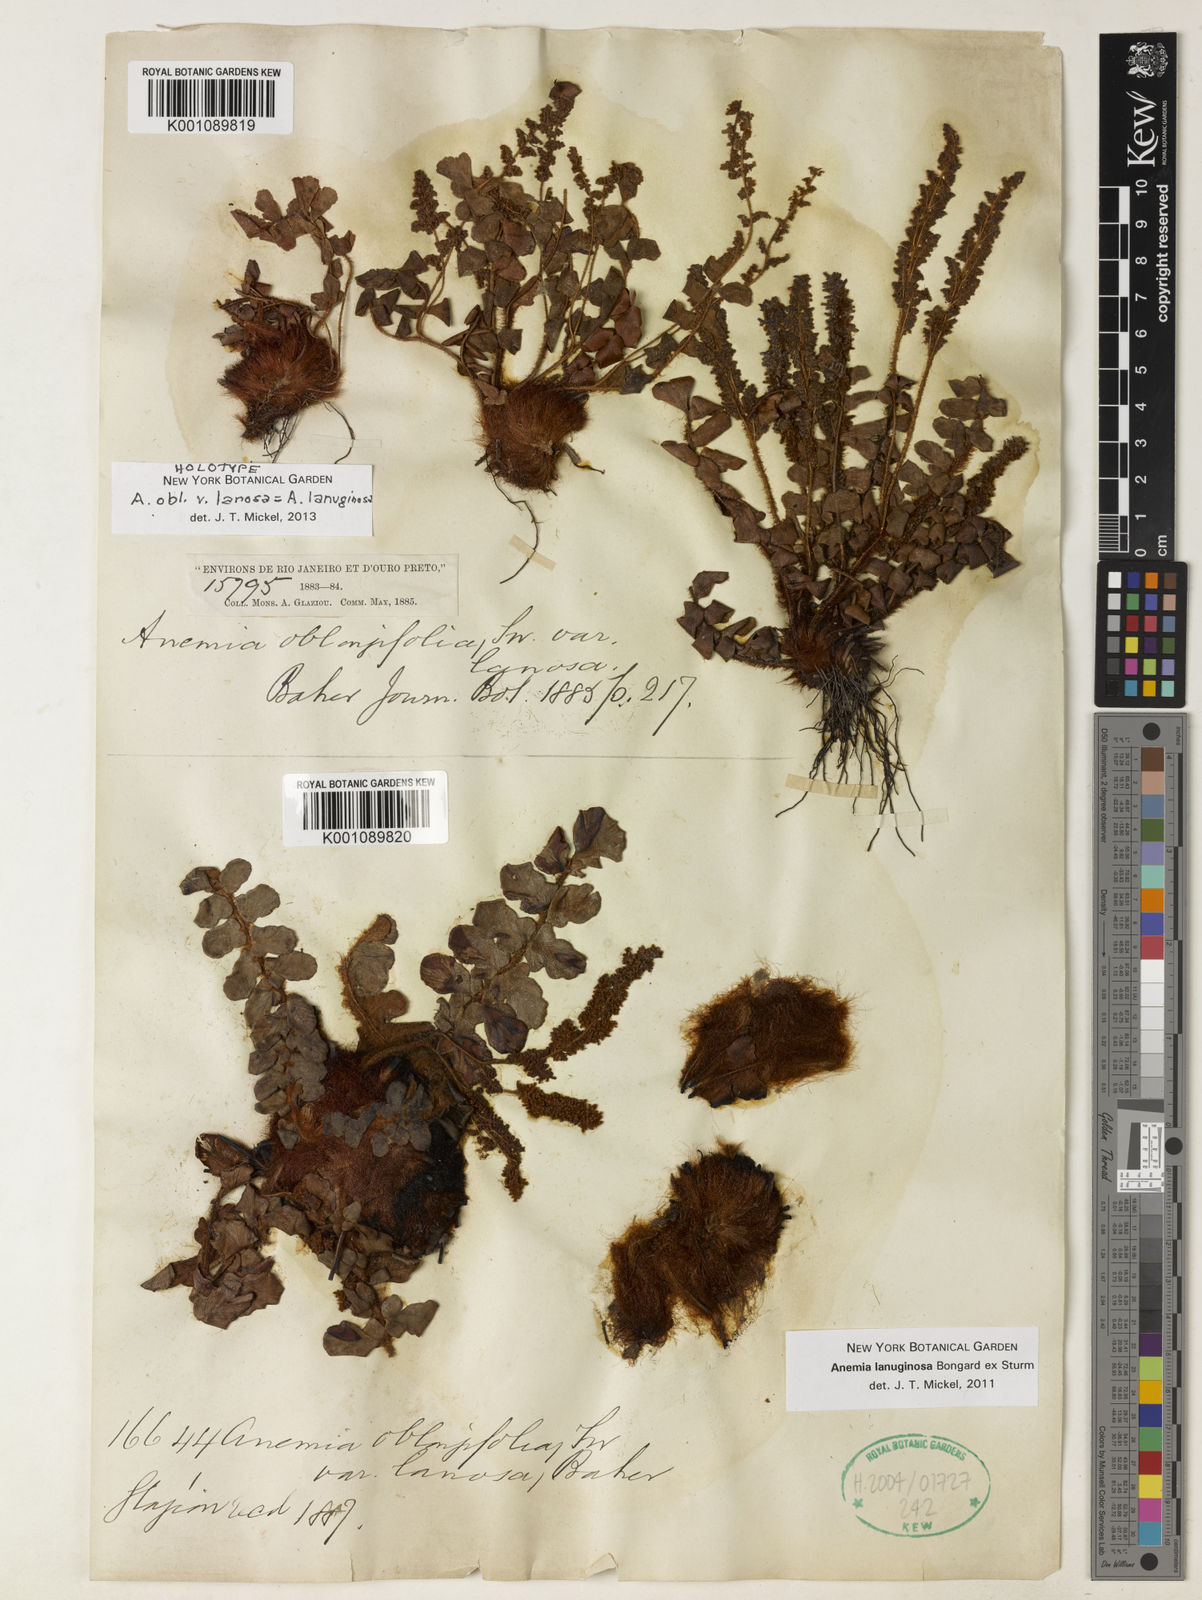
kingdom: Plantae
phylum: Tracheophyta
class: Polypodiopsida
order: Schizaeales
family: Anemiaceae
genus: Anemia
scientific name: Anemia lanuginosa
